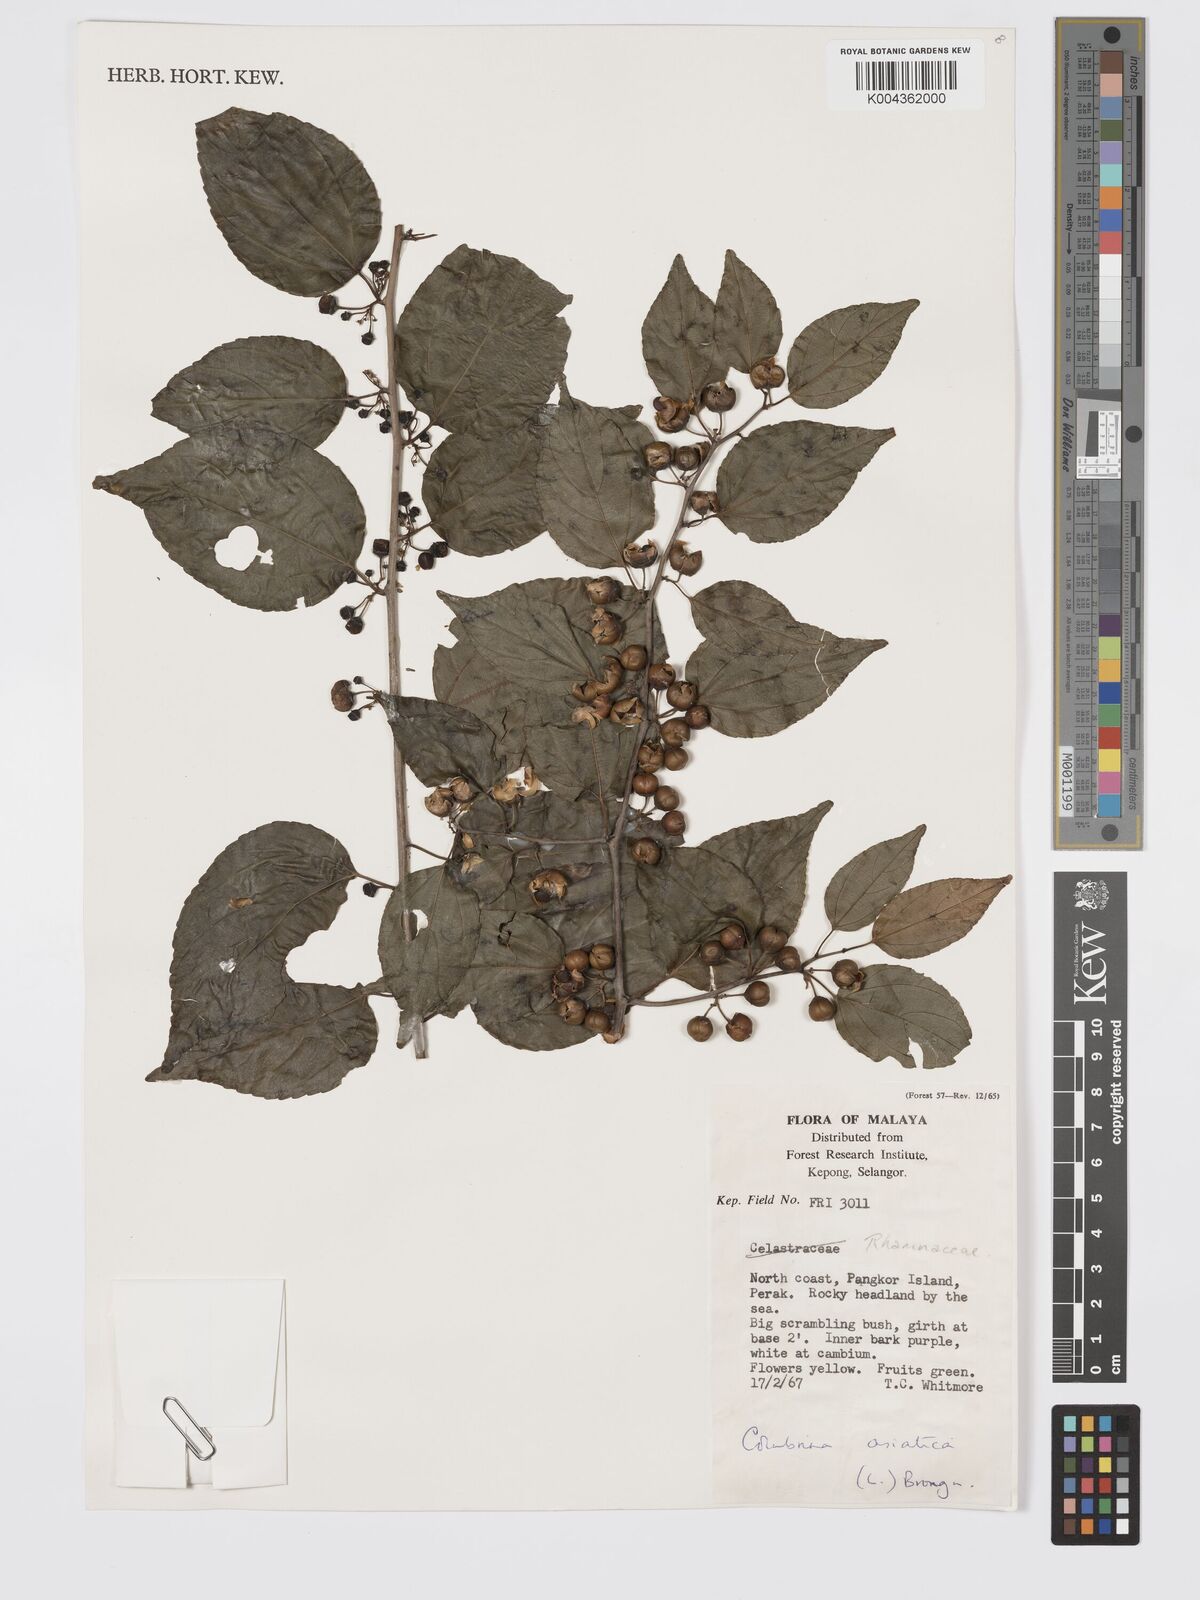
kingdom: Plantae
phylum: Tracheophyta
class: Magnoliopsida
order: Rosales
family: Rhamnaceae
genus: Colubrina
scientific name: Colubrina asiatica
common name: Asian nakedwood
